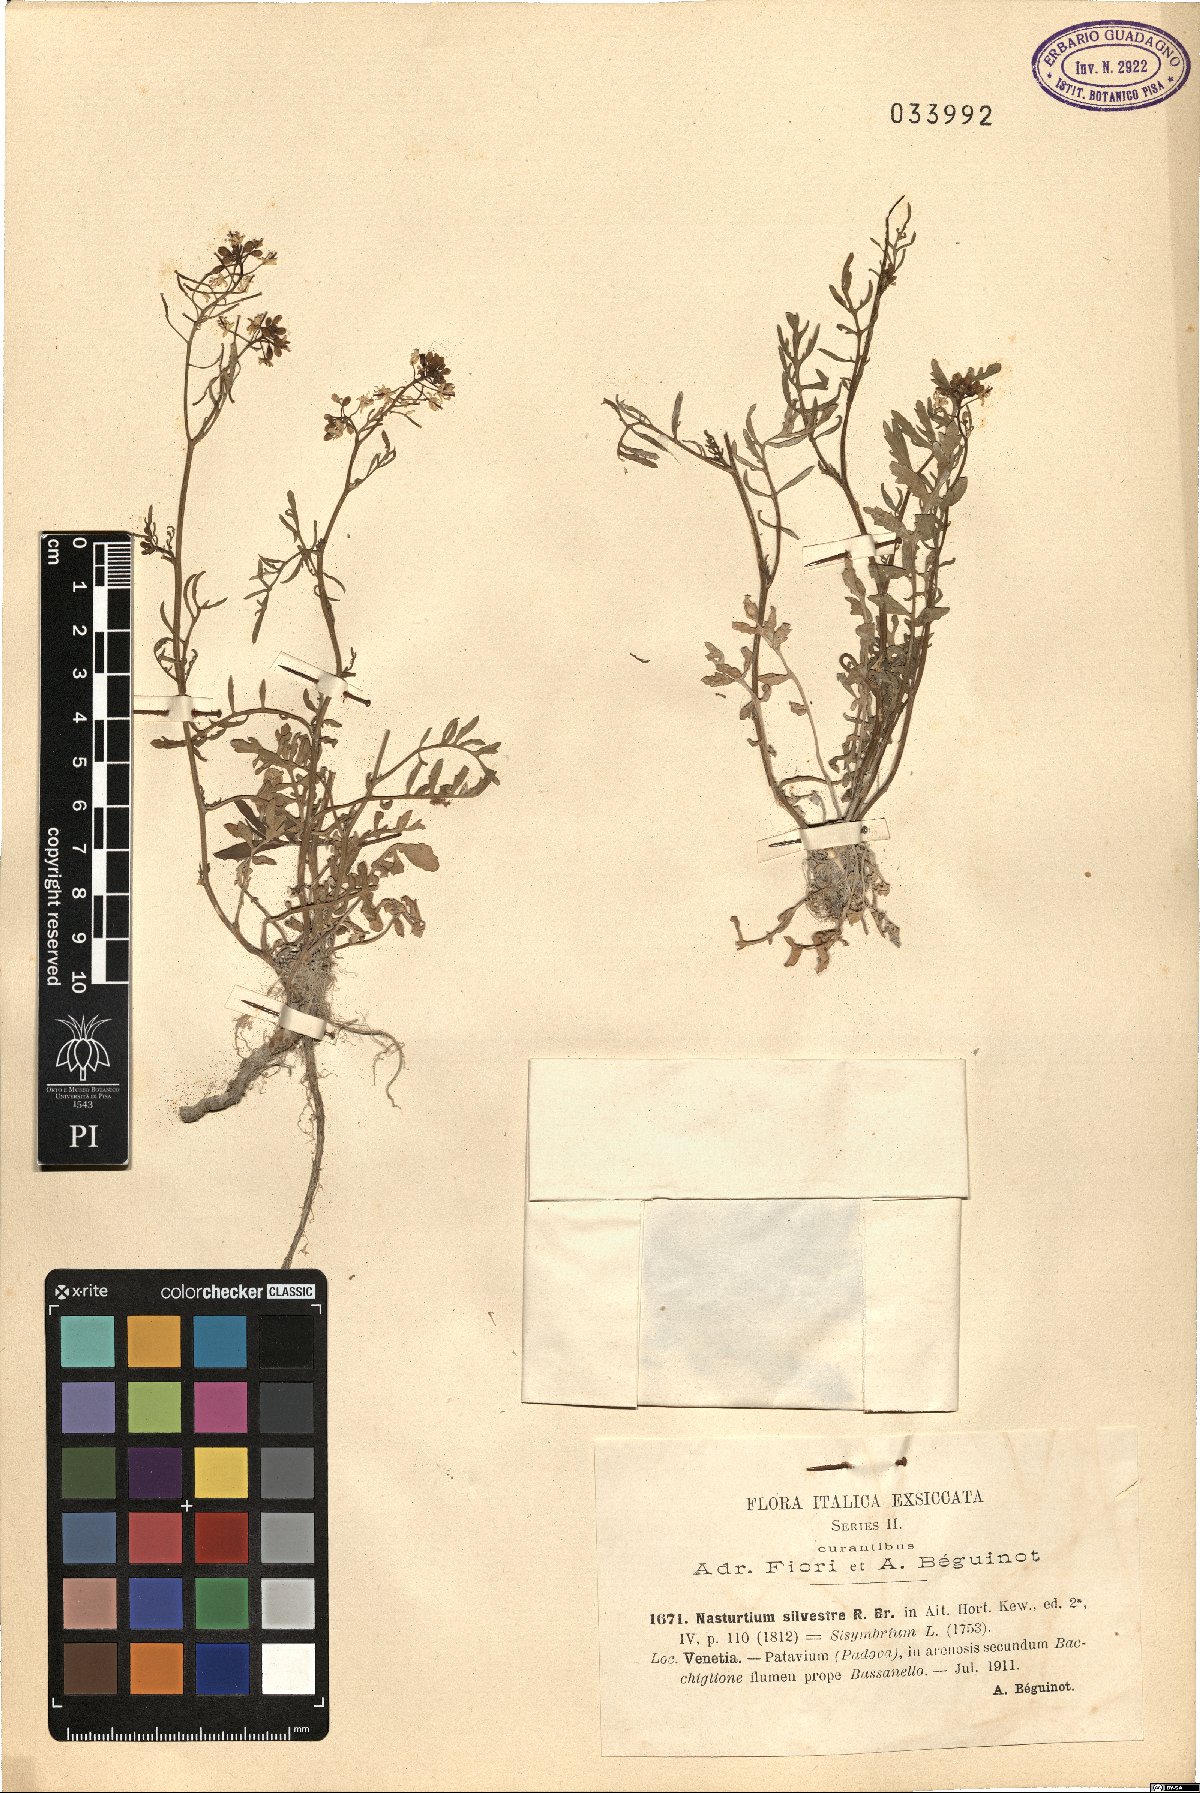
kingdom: Plantae
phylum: Tracheophyta
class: Magnoliopsida
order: Brassicales
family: Brassicaceae
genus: Rorippa
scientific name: Rorippa sylvestris
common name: Creeping yellowcress
